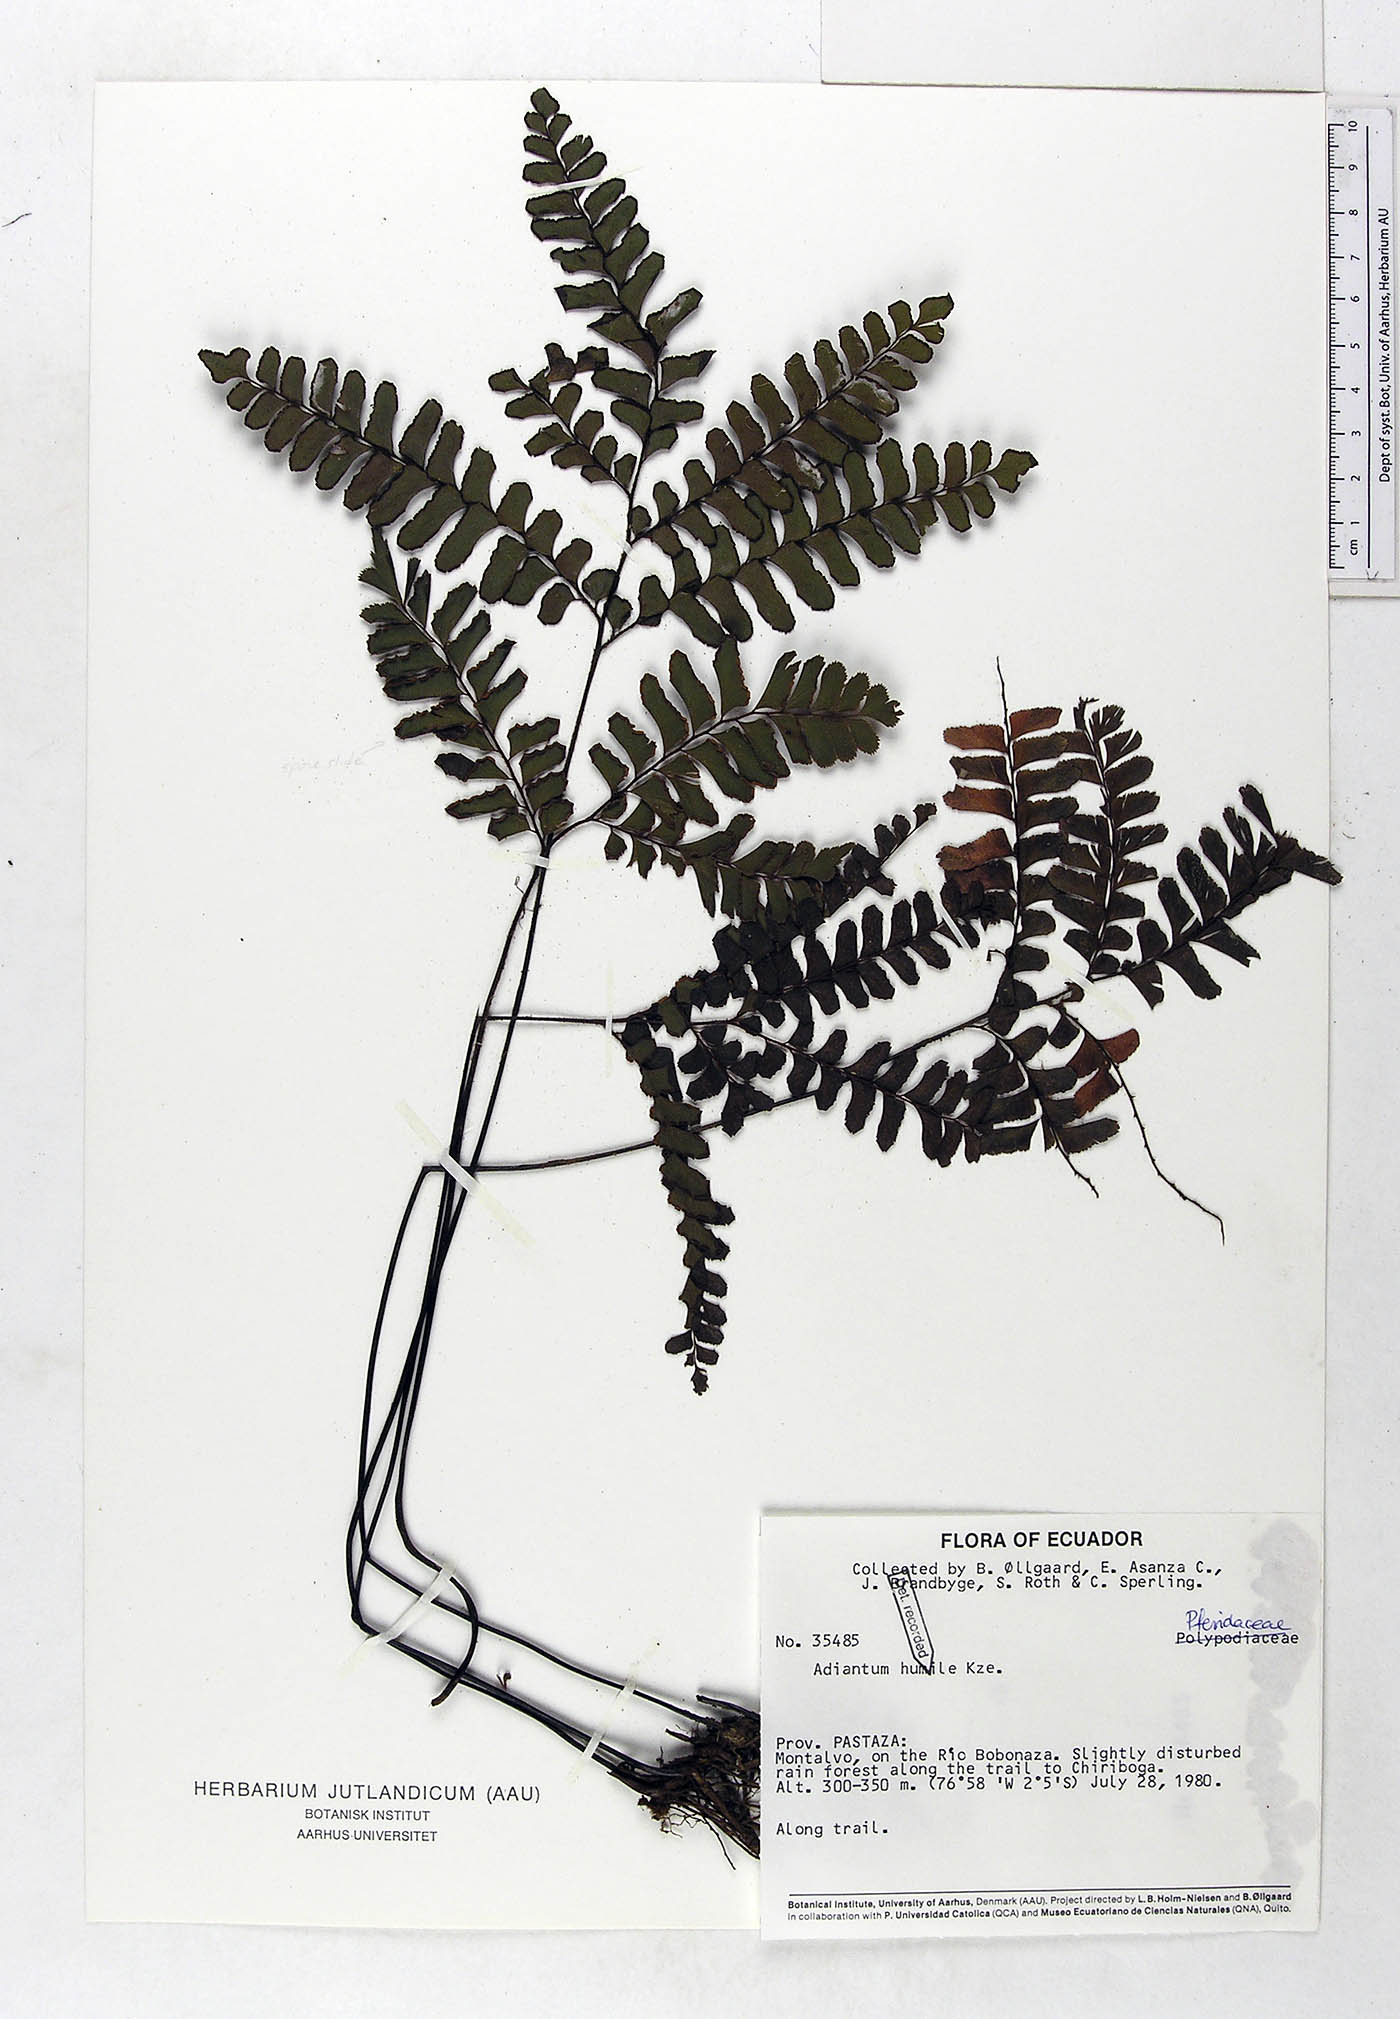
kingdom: Plantae
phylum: Tracheophyta
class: Polypodiopsida
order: Polypodiales
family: Pteridaceae
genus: Adiantum
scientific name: Adiantum humile
